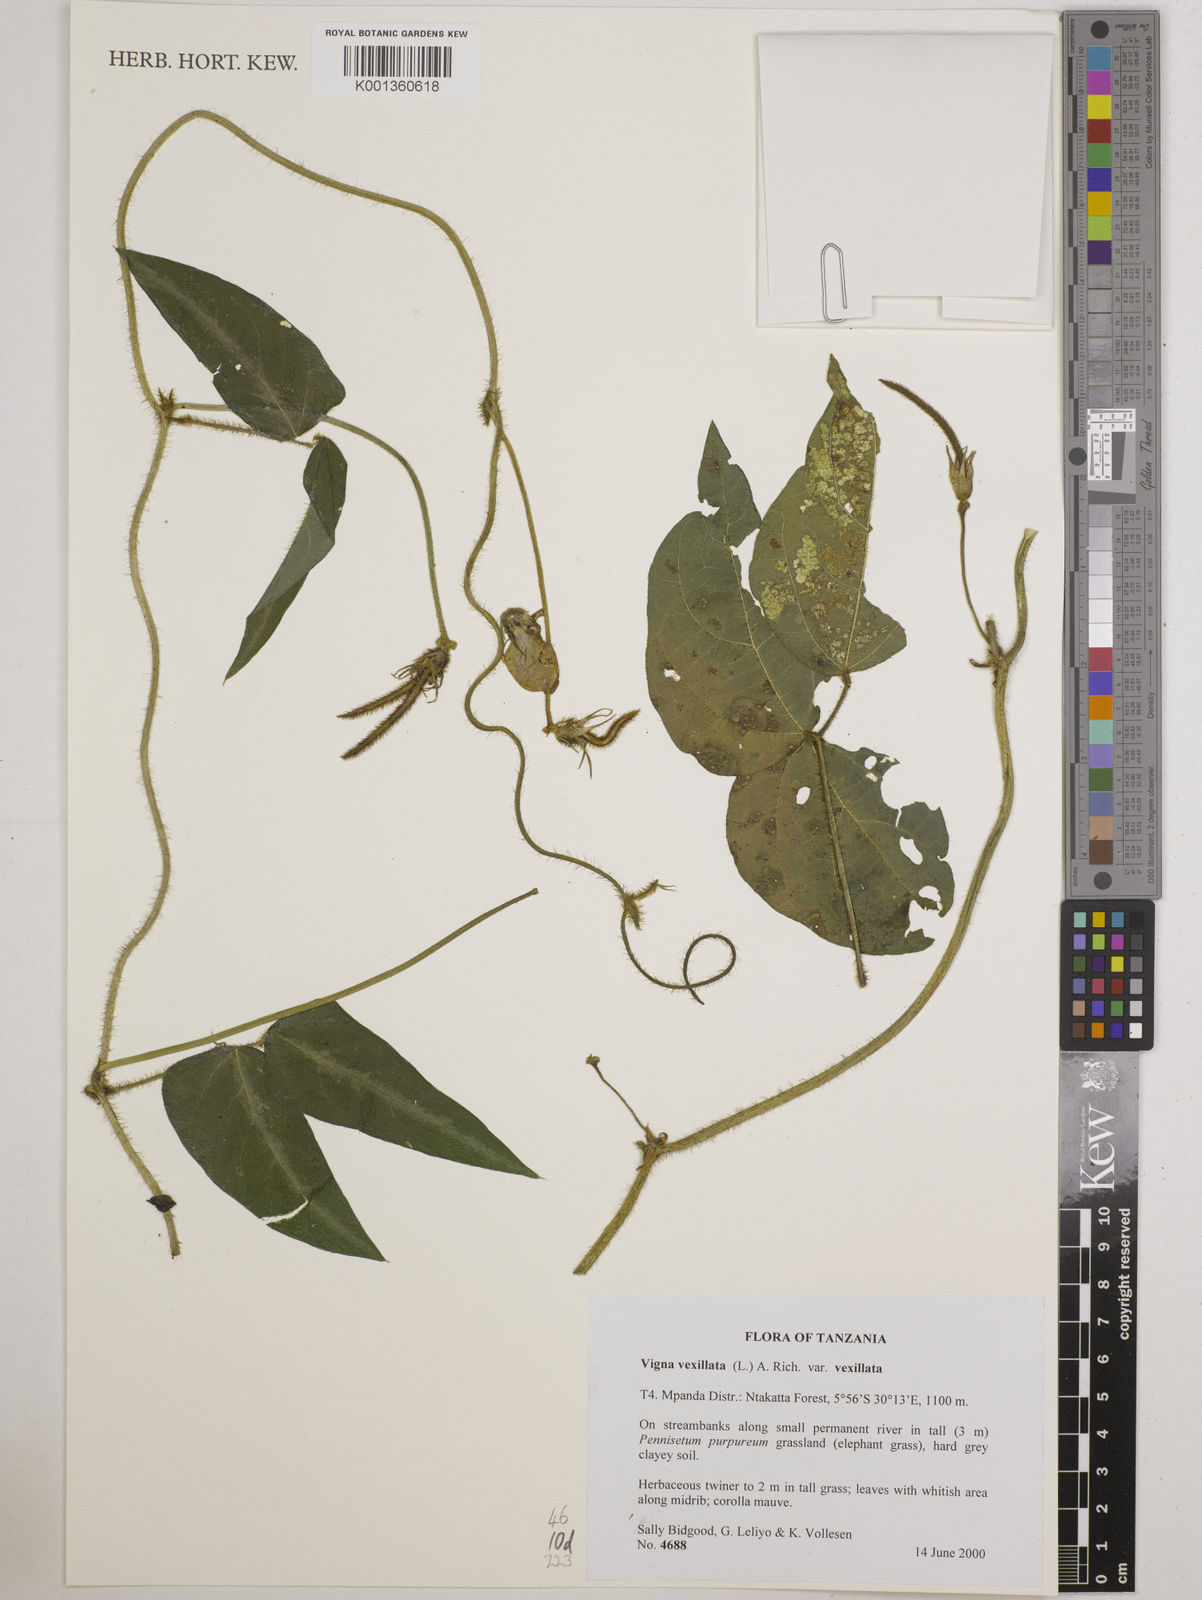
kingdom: Plantae
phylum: Tracheophyta
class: Magnoliopsida
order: Fabales
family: Fabaceae
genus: Vigna
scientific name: Vigna vexillata
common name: Zombi pea
